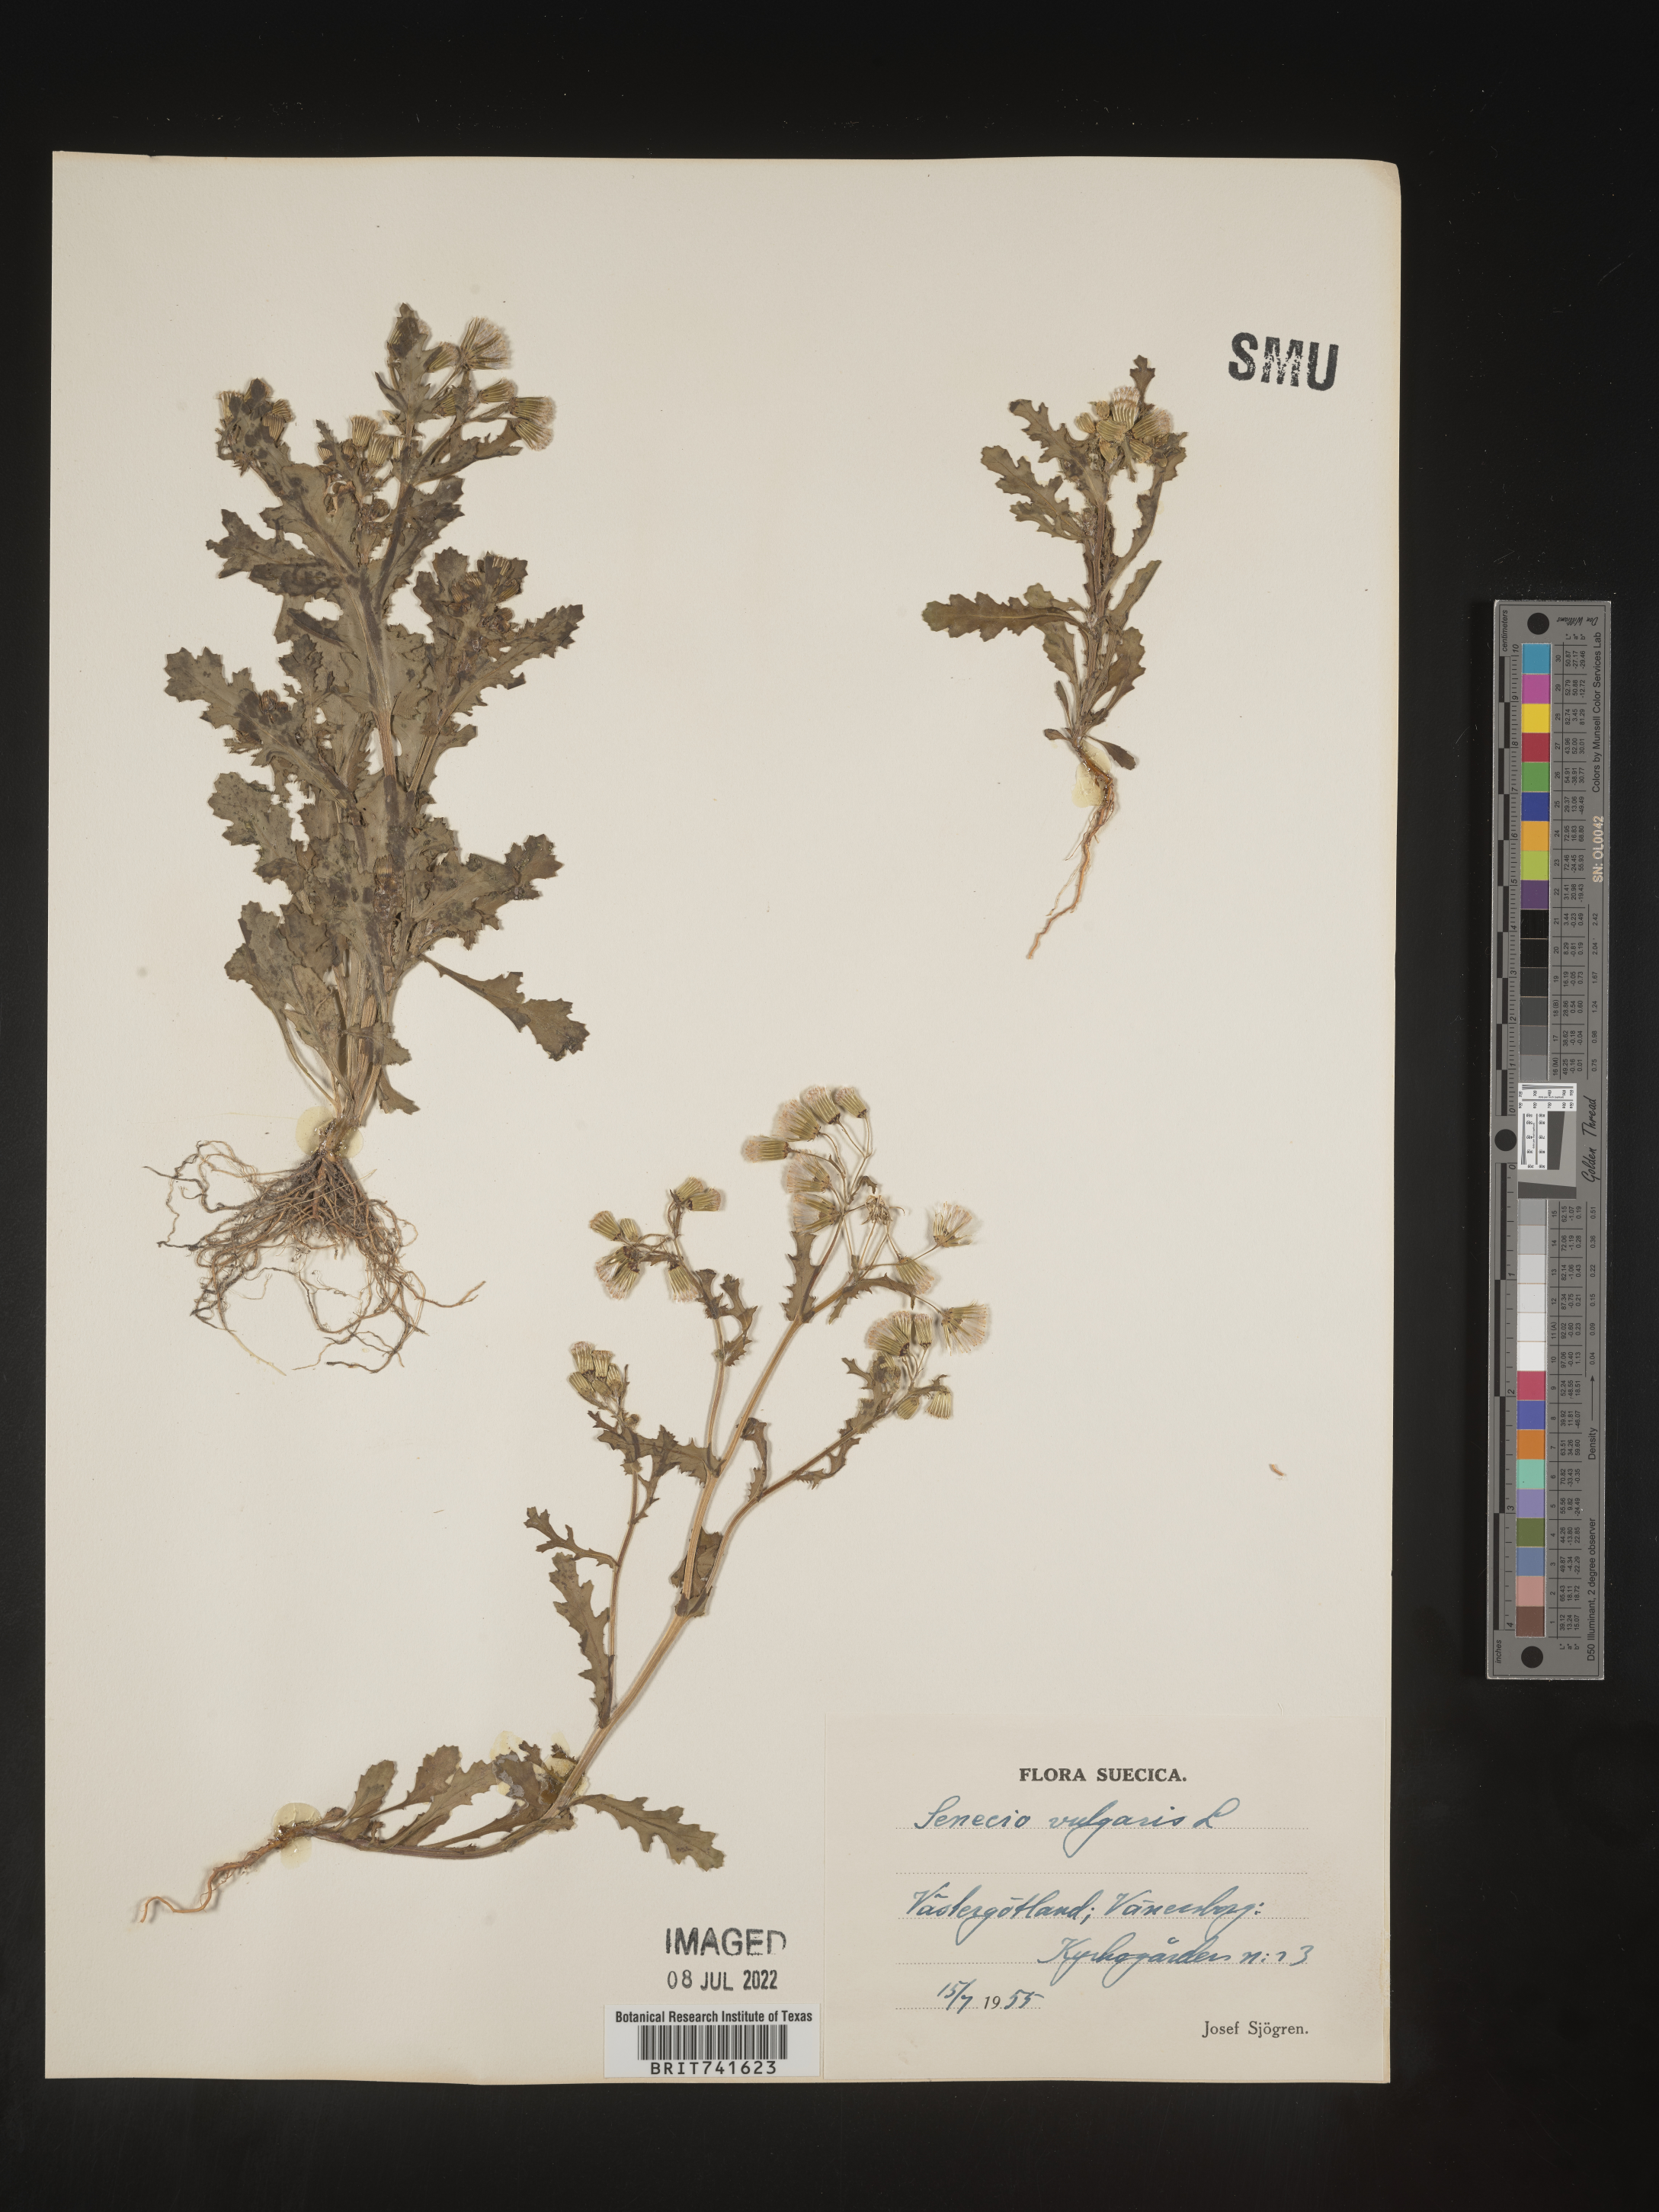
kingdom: Plantae
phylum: Tracheophyta
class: Magnoliopsida
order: Asterales
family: Asteraceae
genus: Senecio
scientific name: Senecio
